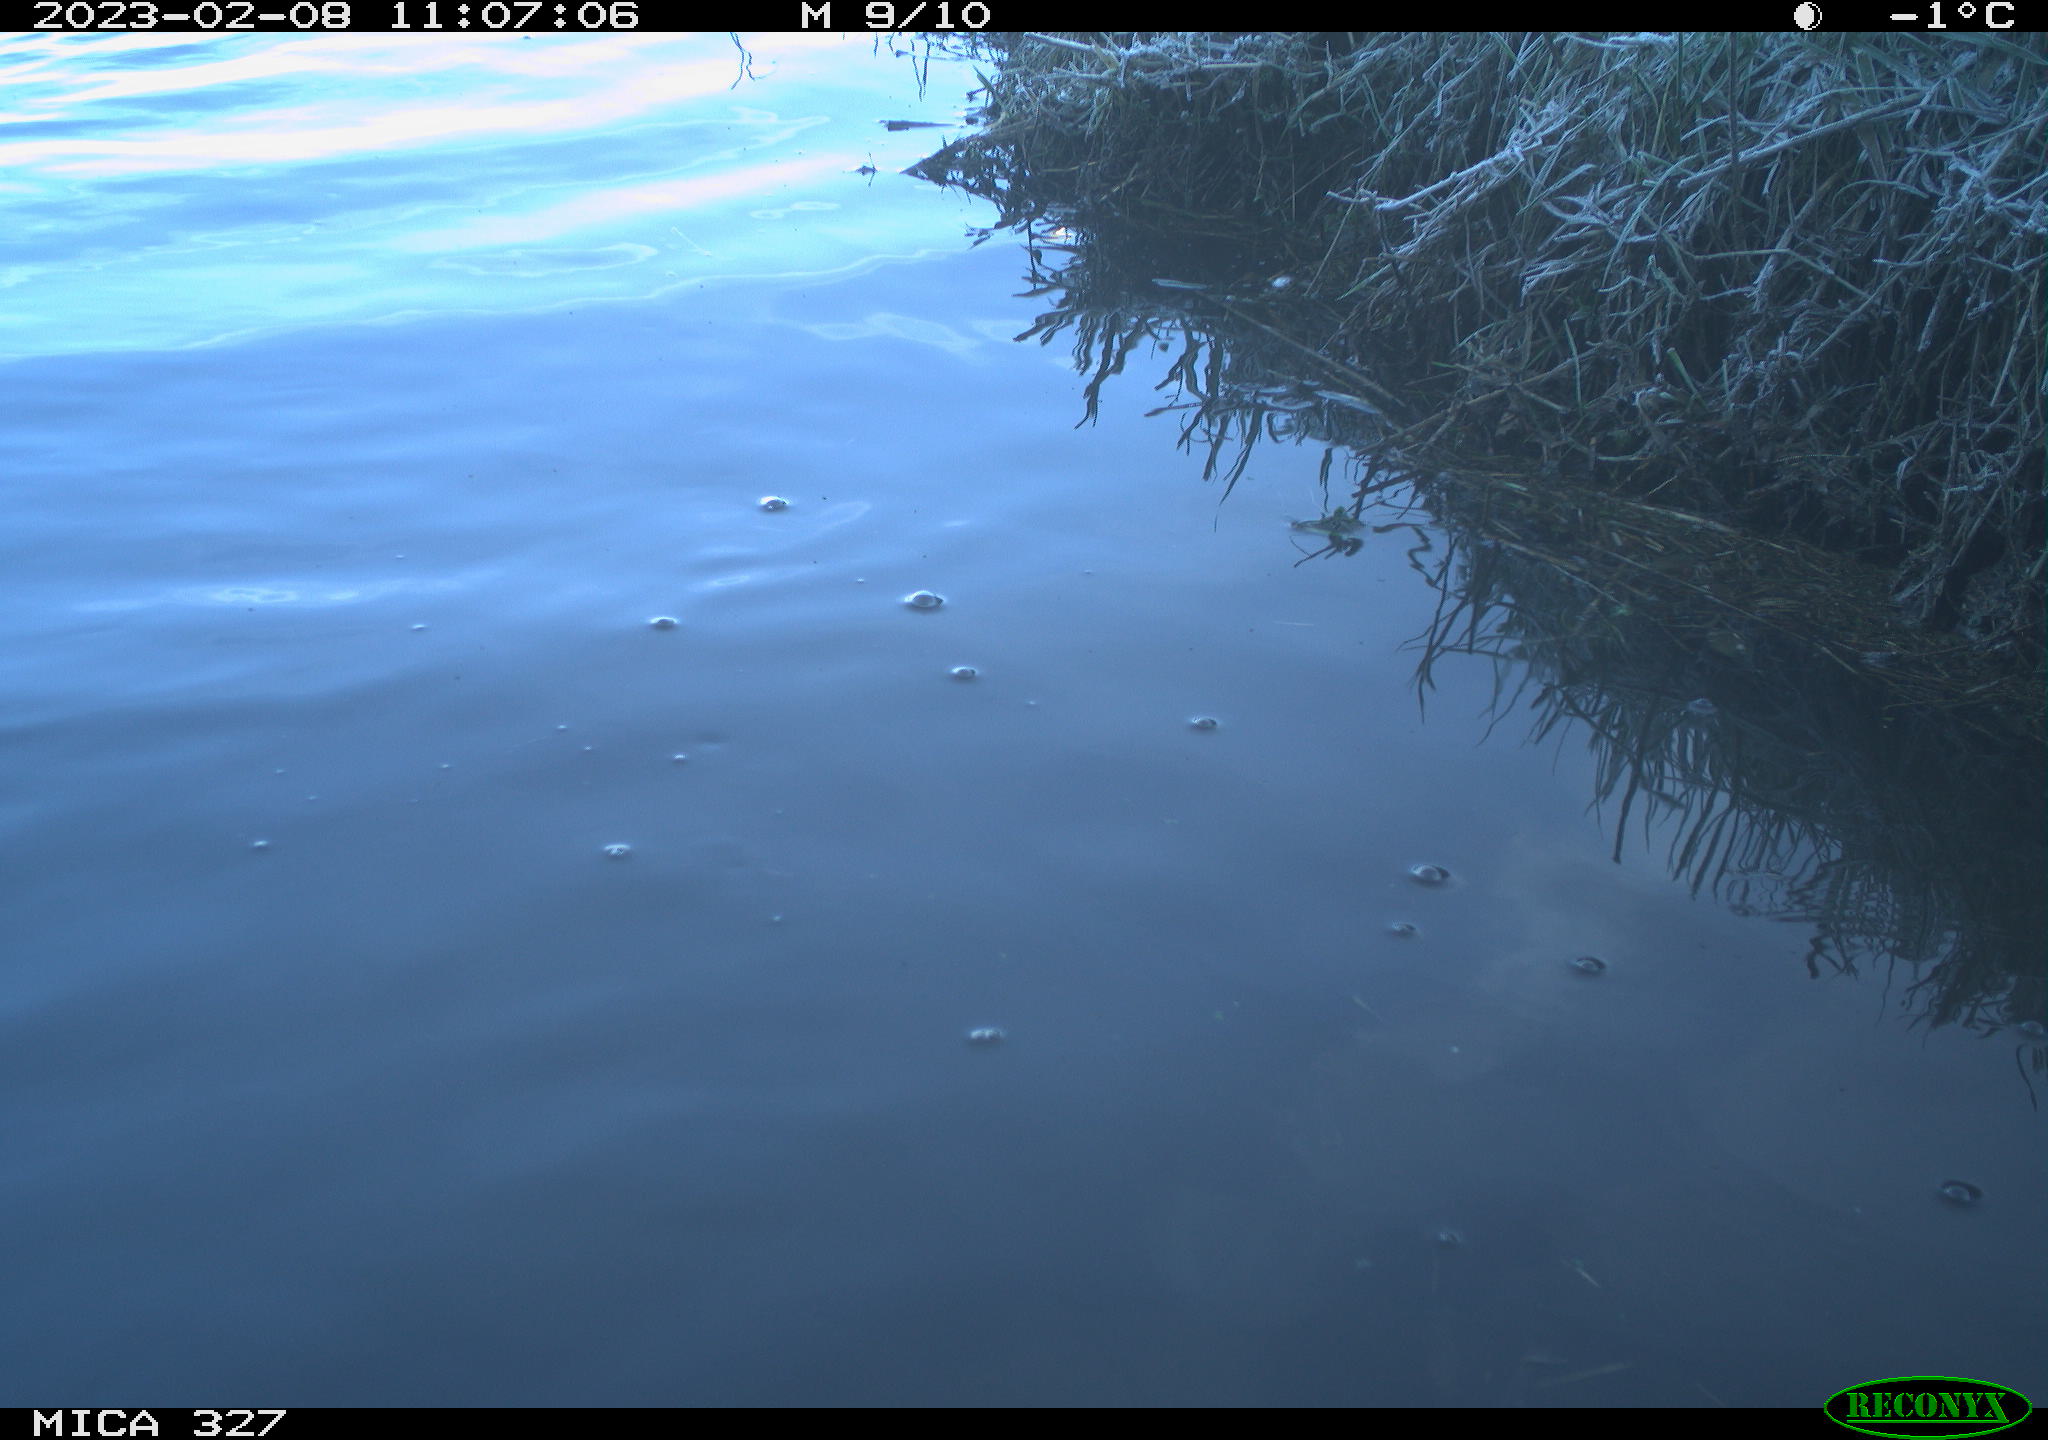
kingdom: Animalia
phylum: Chordata
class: Aves
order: Suliformes
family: Phalacrocoracidae
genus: Phalacrocorax
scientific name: Phalacrocorax carbo
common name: Great cormorant
